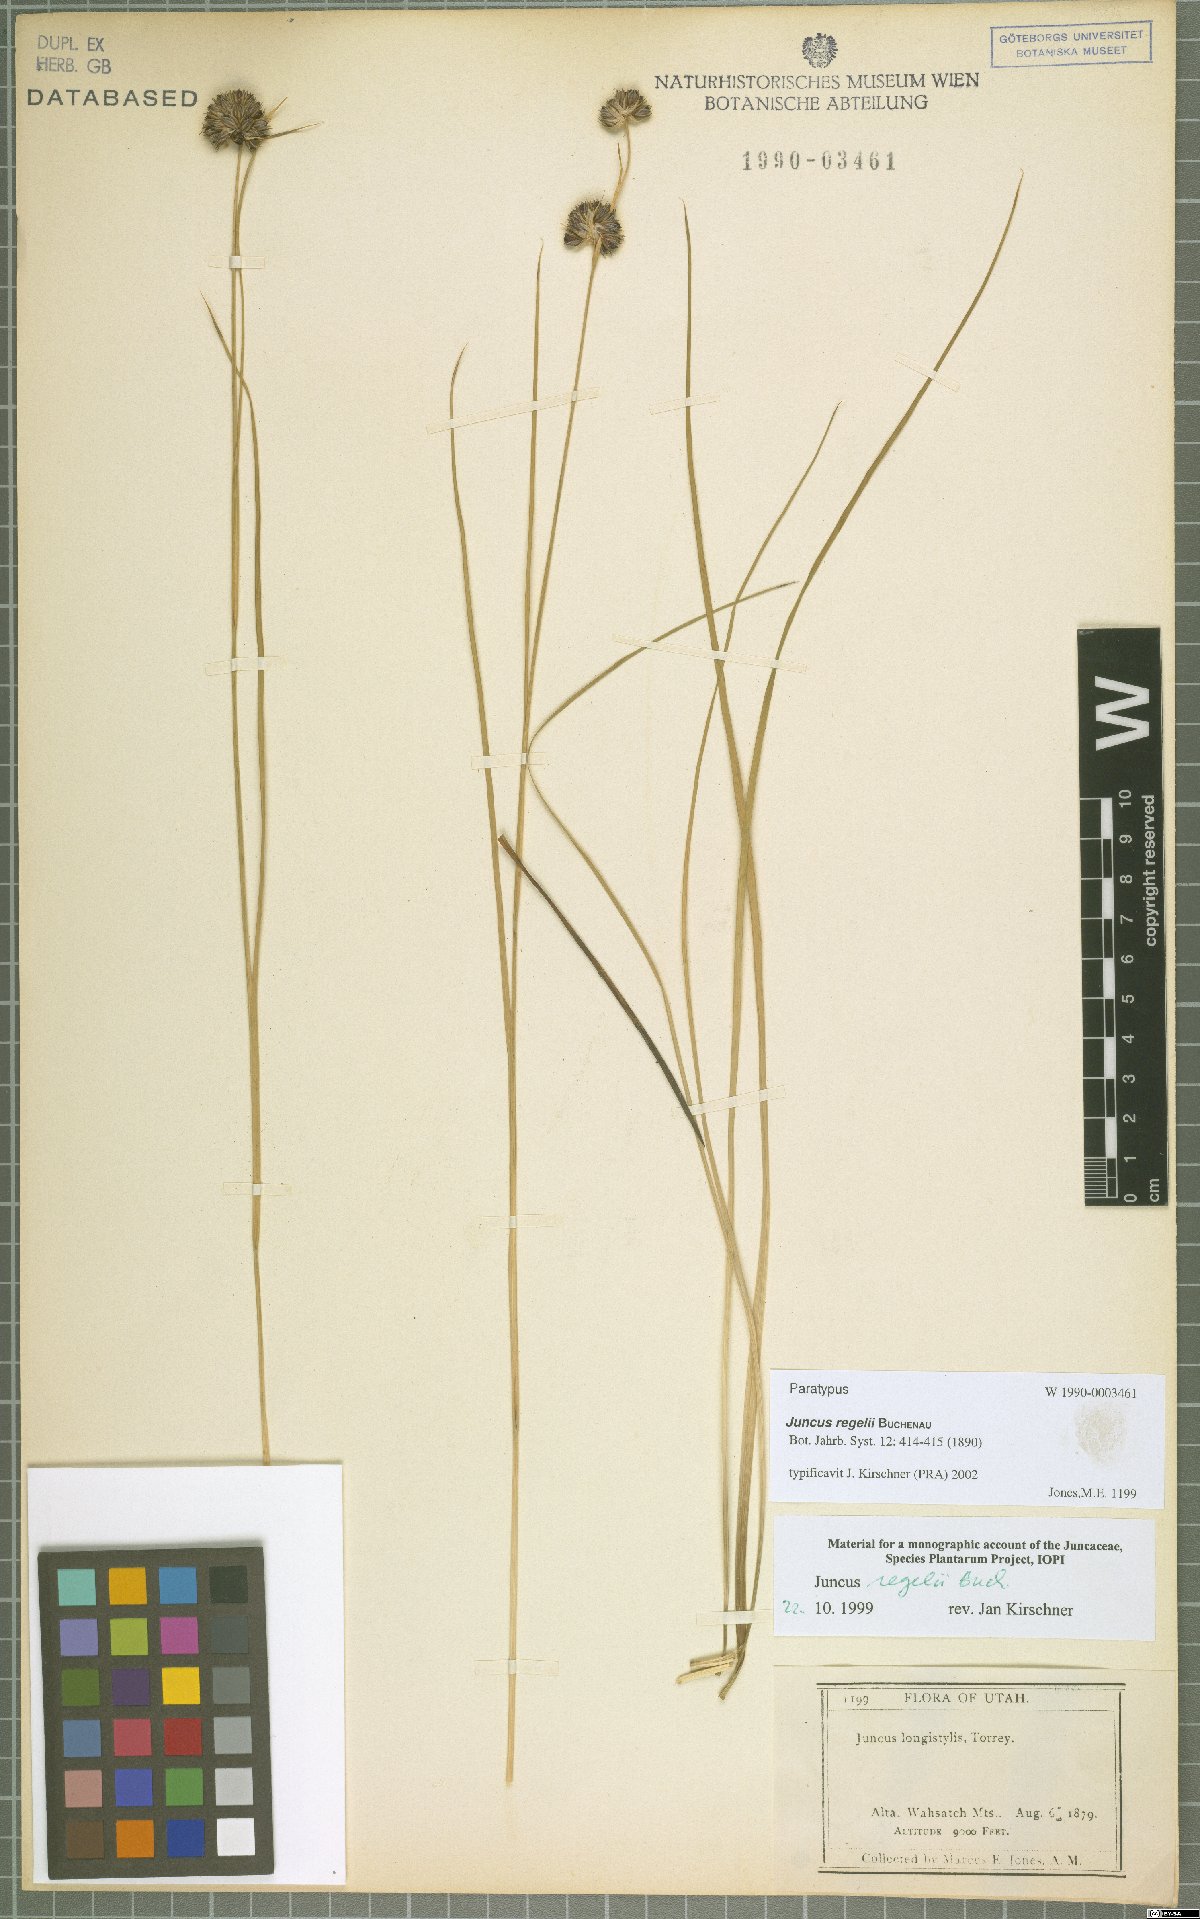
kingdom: Plantae
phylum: Tracheophyta
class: Liliopsida
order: Poales
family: Juncaceae
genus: Juncus
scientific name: Juncus regelii
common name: Regel's rush
